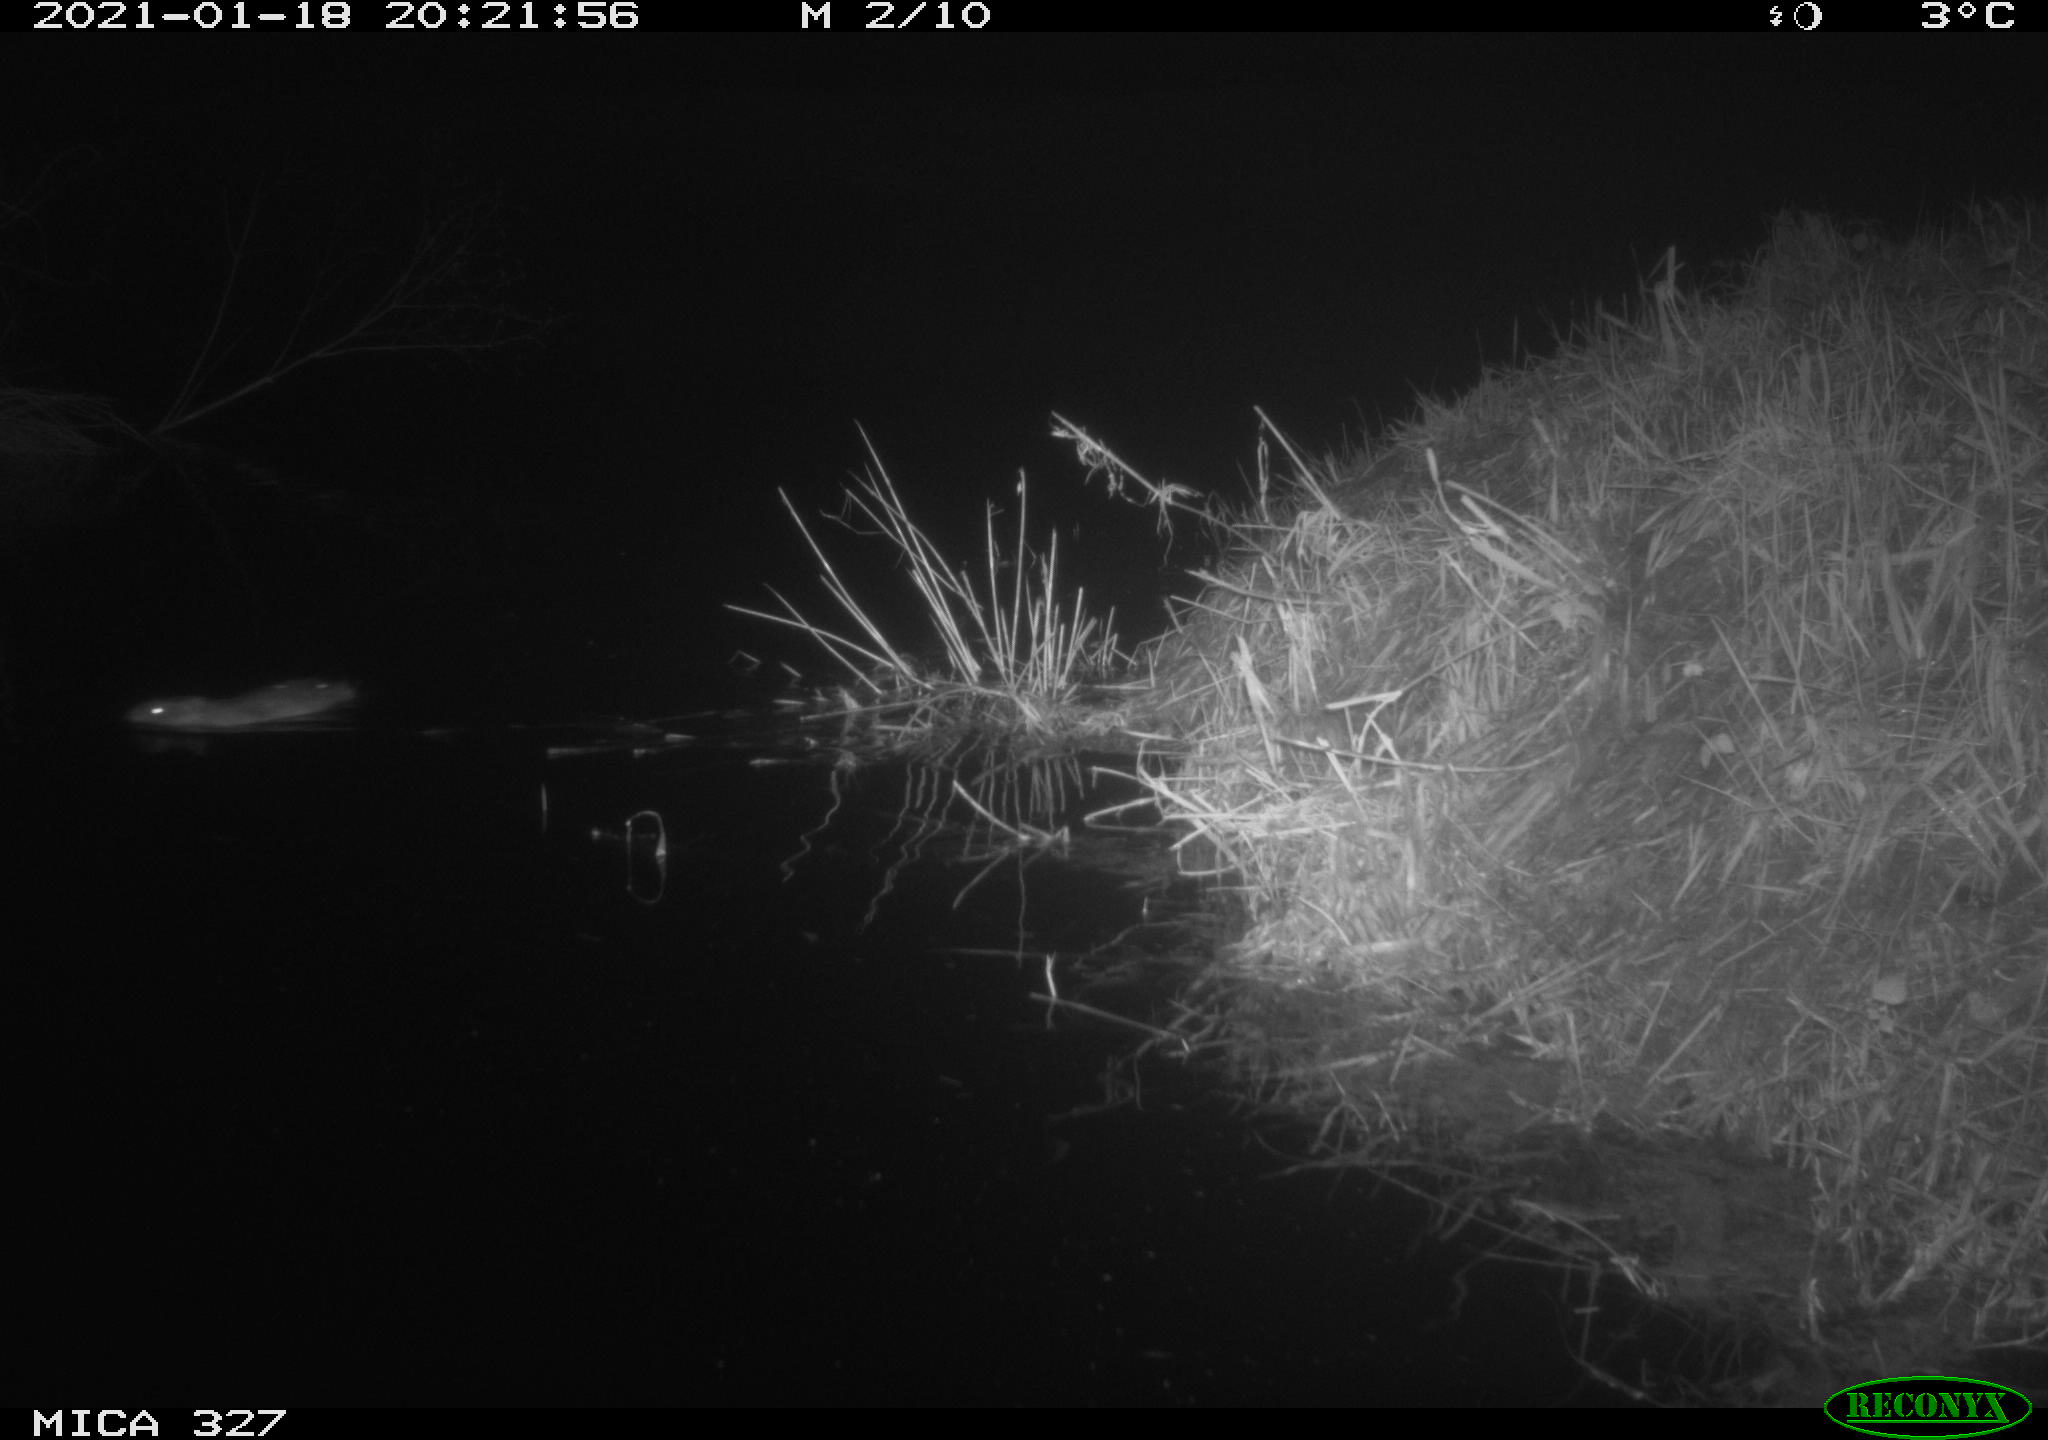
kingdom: Animalia
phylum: Chordata
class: Mammalia
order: Rodentia
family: Cricetidae
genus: Ondatra
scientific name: Ondatra zibethicus
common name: Muskrat
